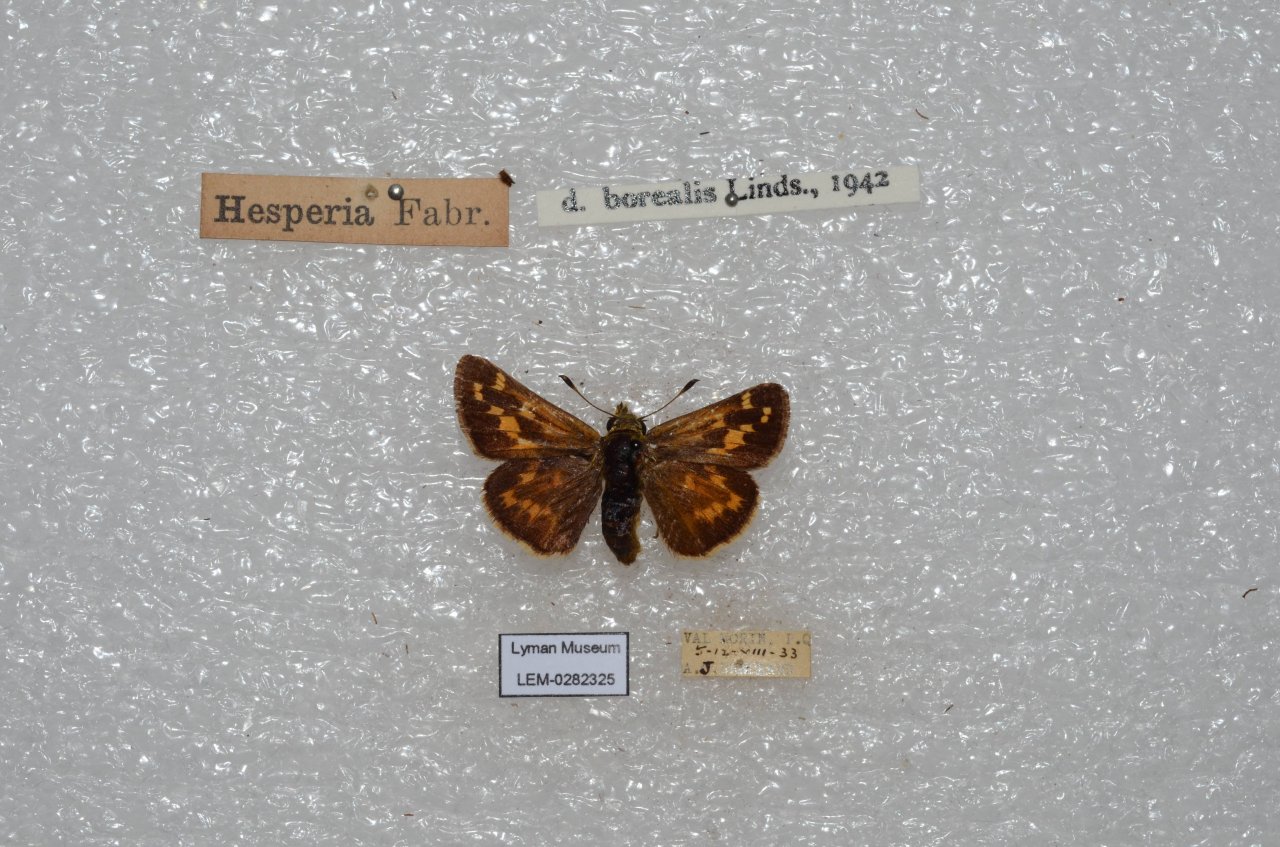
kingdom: Animalia
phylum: Arthropoda
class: Insecta
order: Lepidoptera
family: Hesperiidae
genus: Hesperia
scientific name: Hesperia leonardus
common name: Leonard's Skipper
